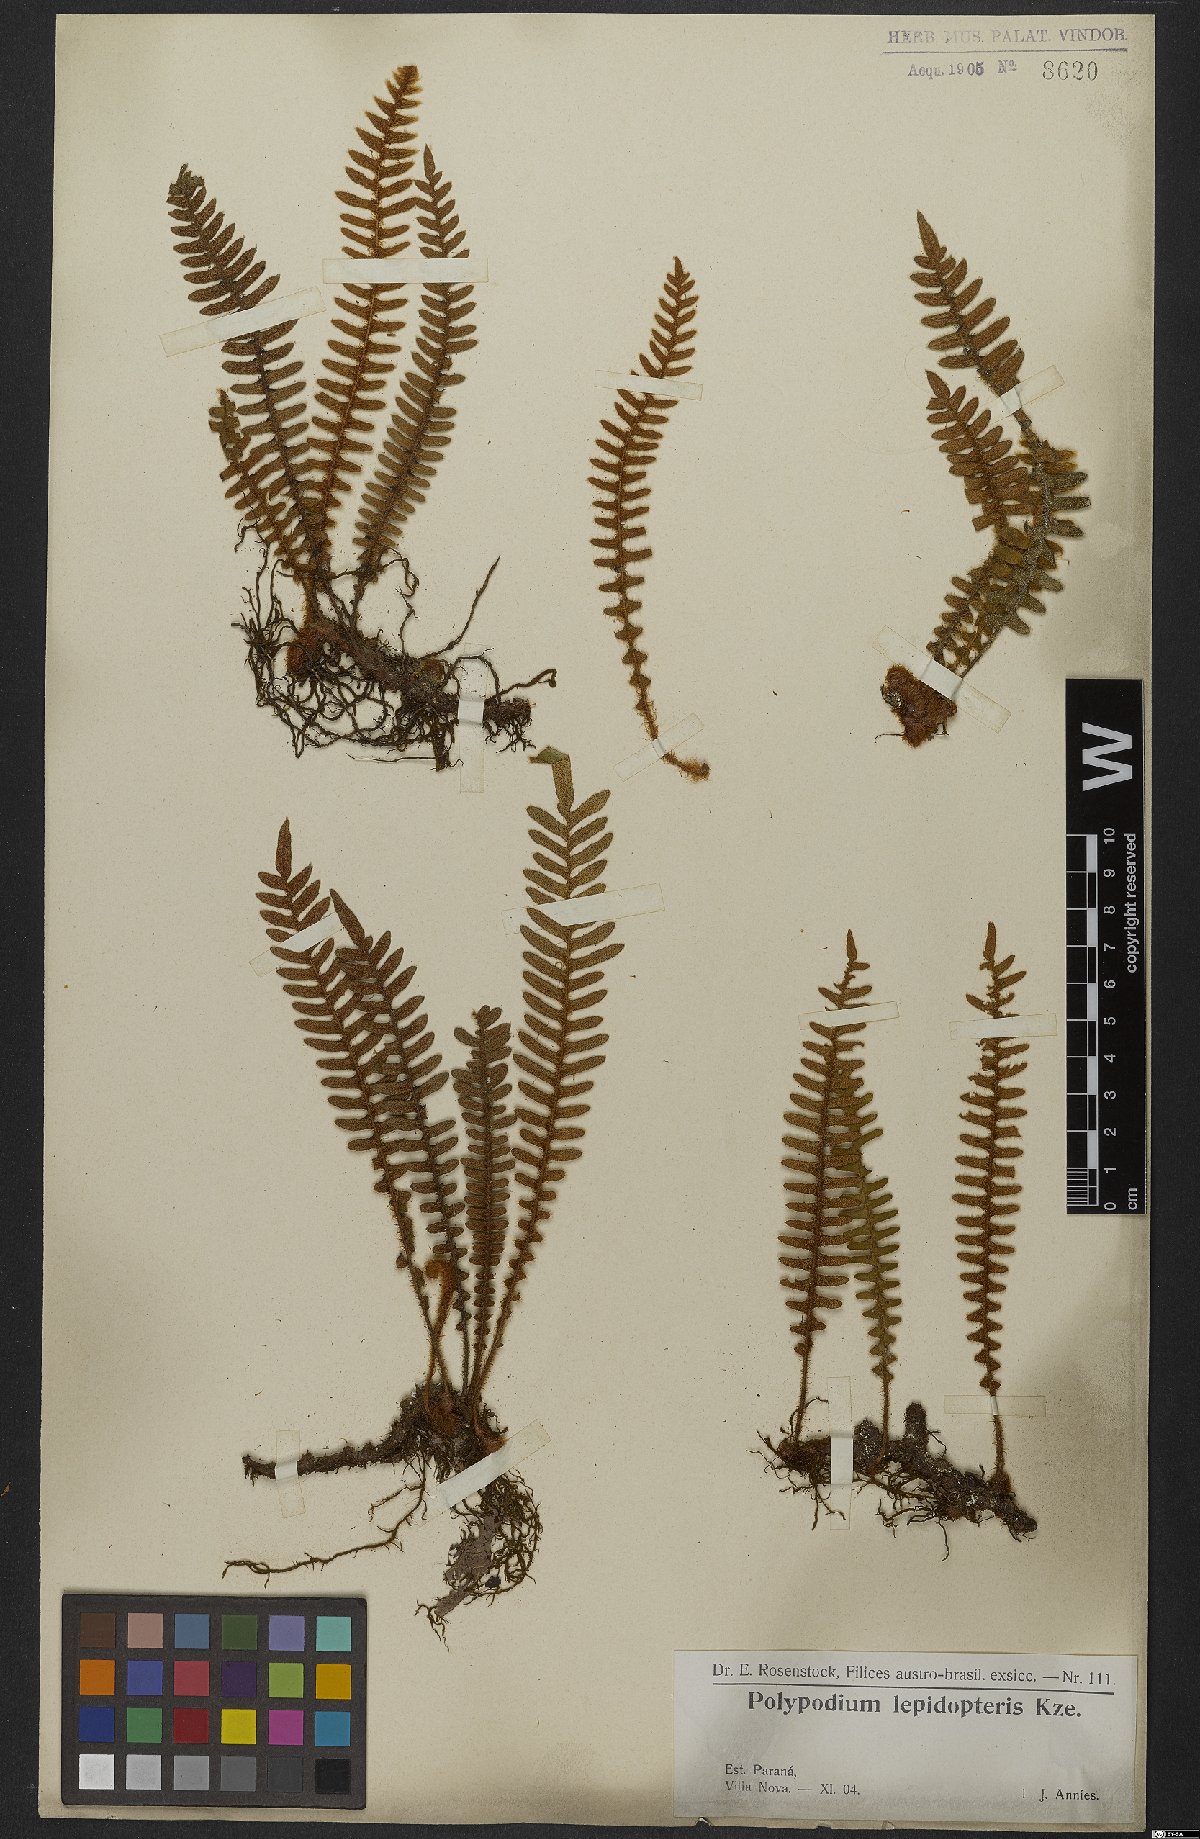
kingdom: Plantae
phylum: Tracheophyta
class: Polypodiopsida
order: Polypodiales
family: Polypodiaceae
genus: Pleopeltis
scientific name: Pleopeltis lepidopteris
